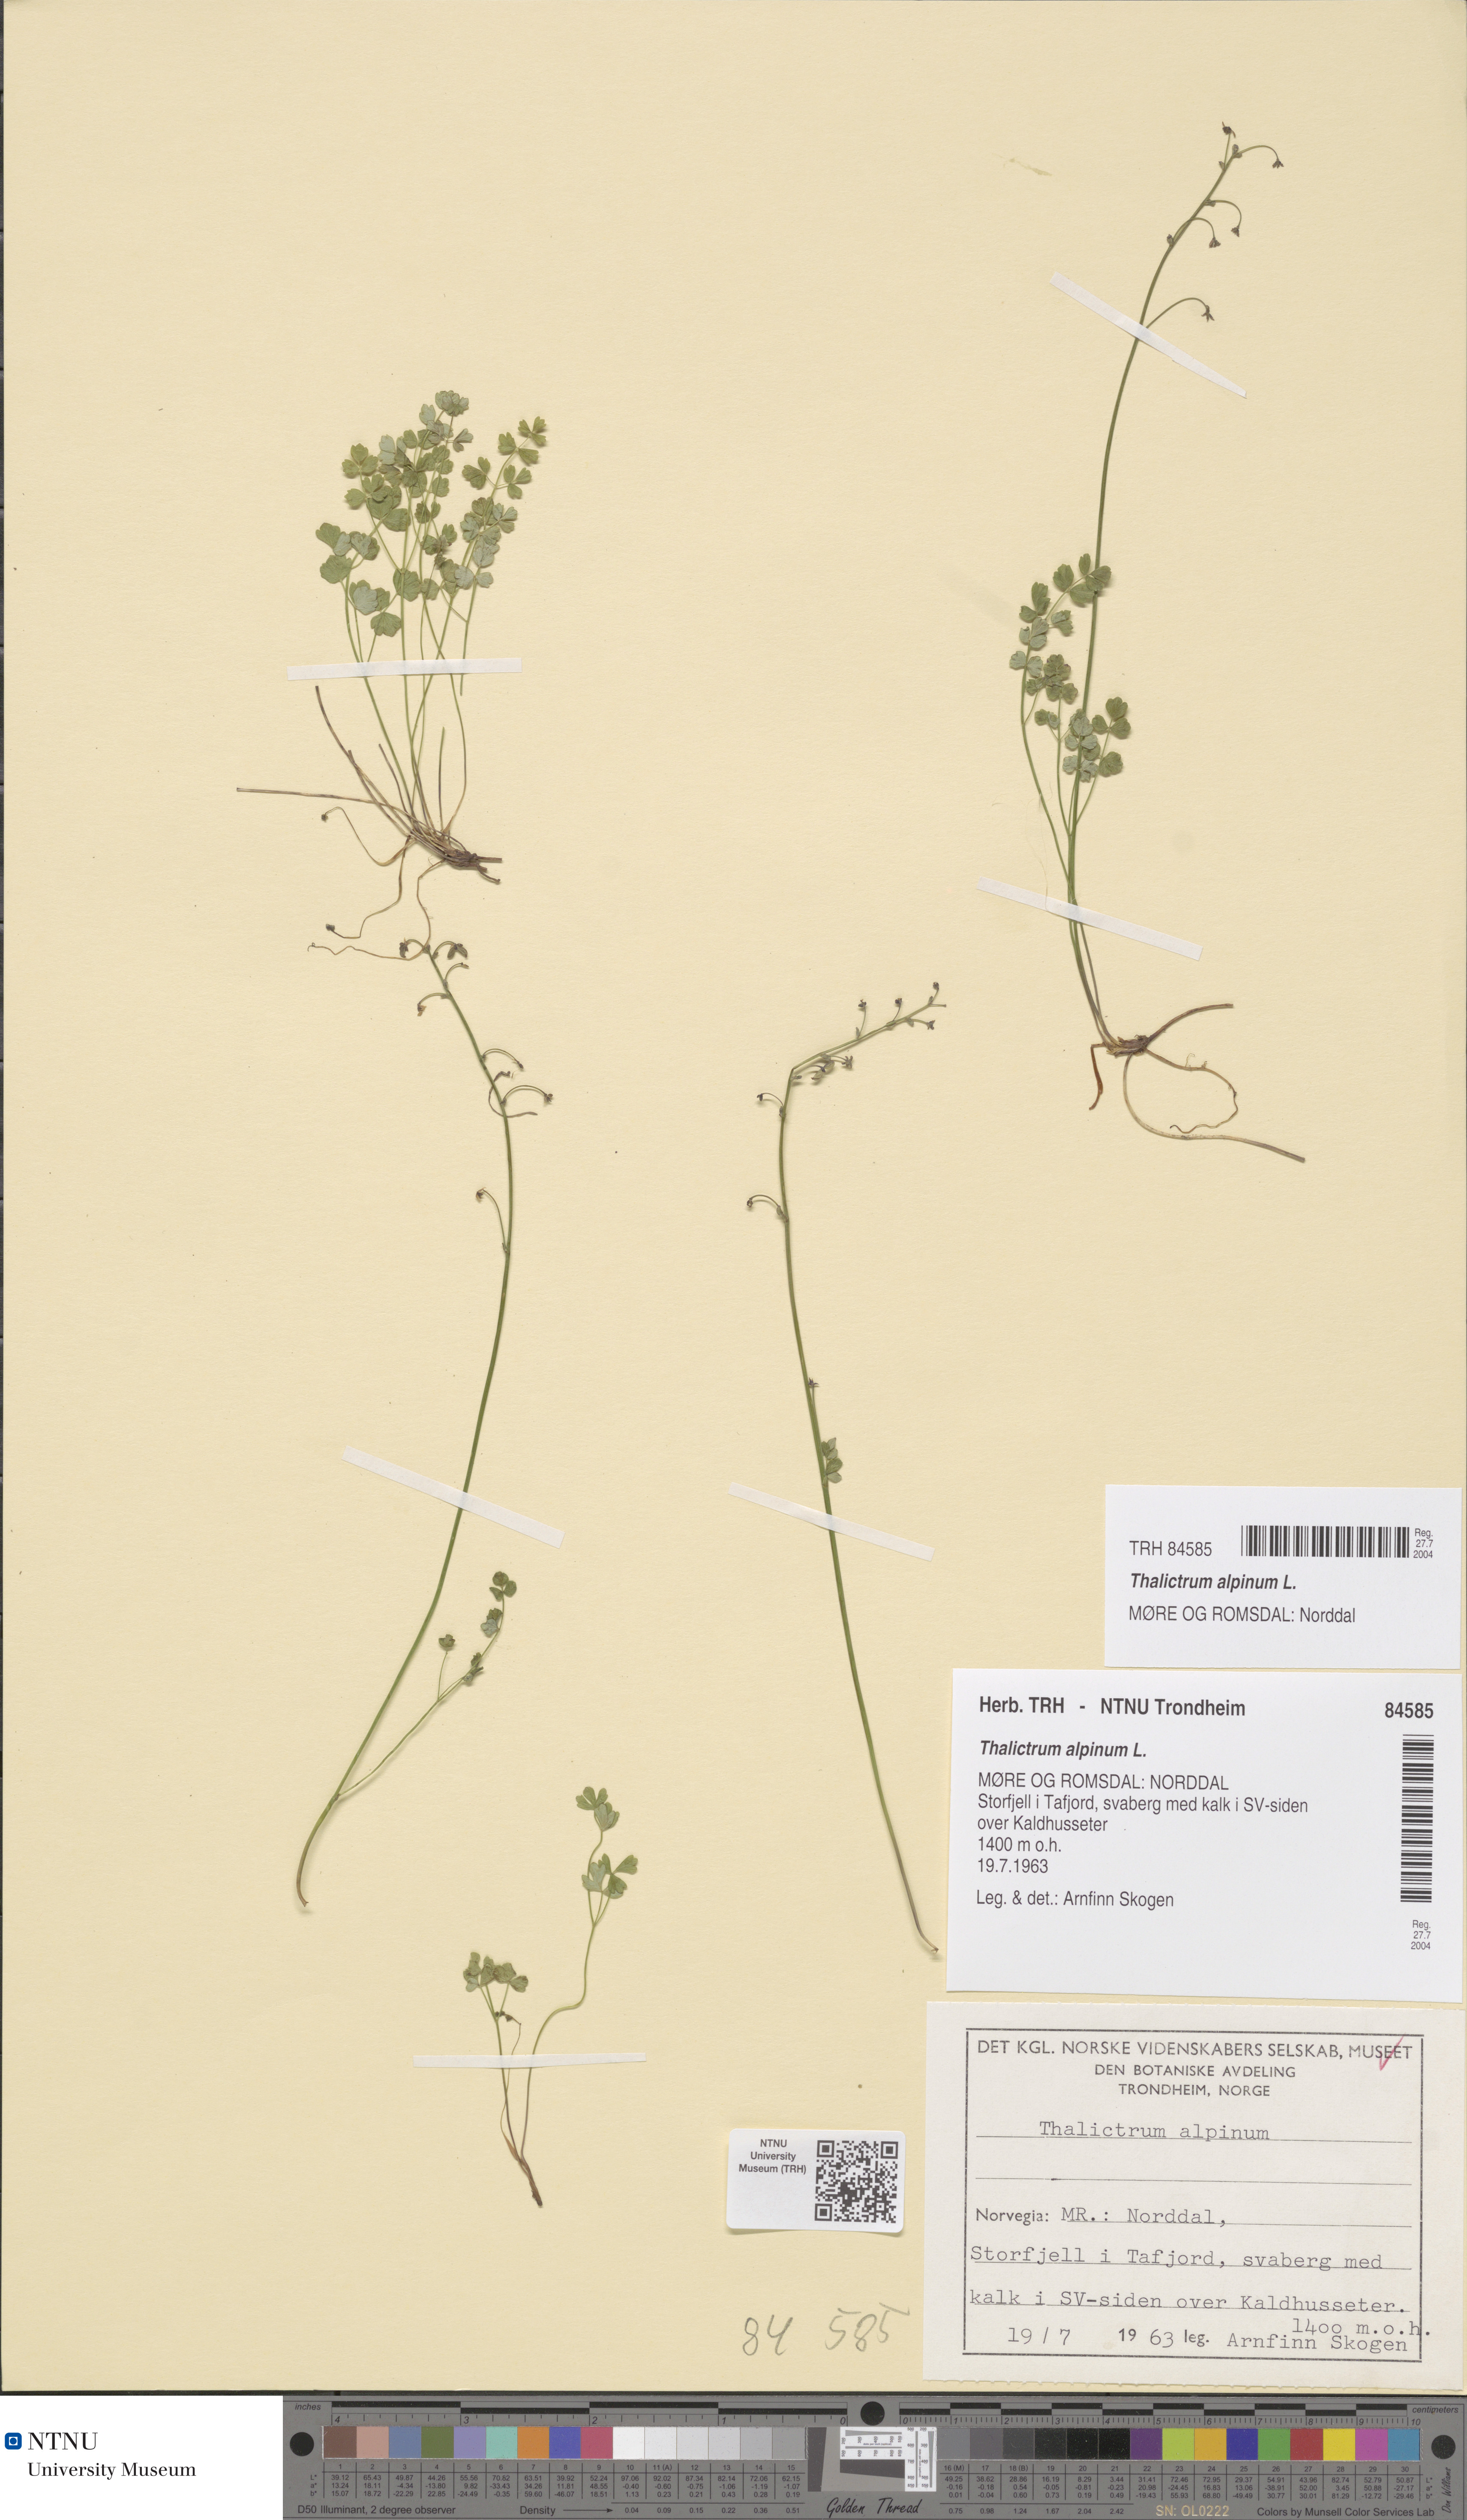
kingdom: Plantae
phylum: Tracheophyta
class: Magnoliopsida
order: Ranunculales
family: Ranunculaceae
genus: Thalictrum
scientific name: Thalictrum alpinum
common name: Alpine meadow-rue
